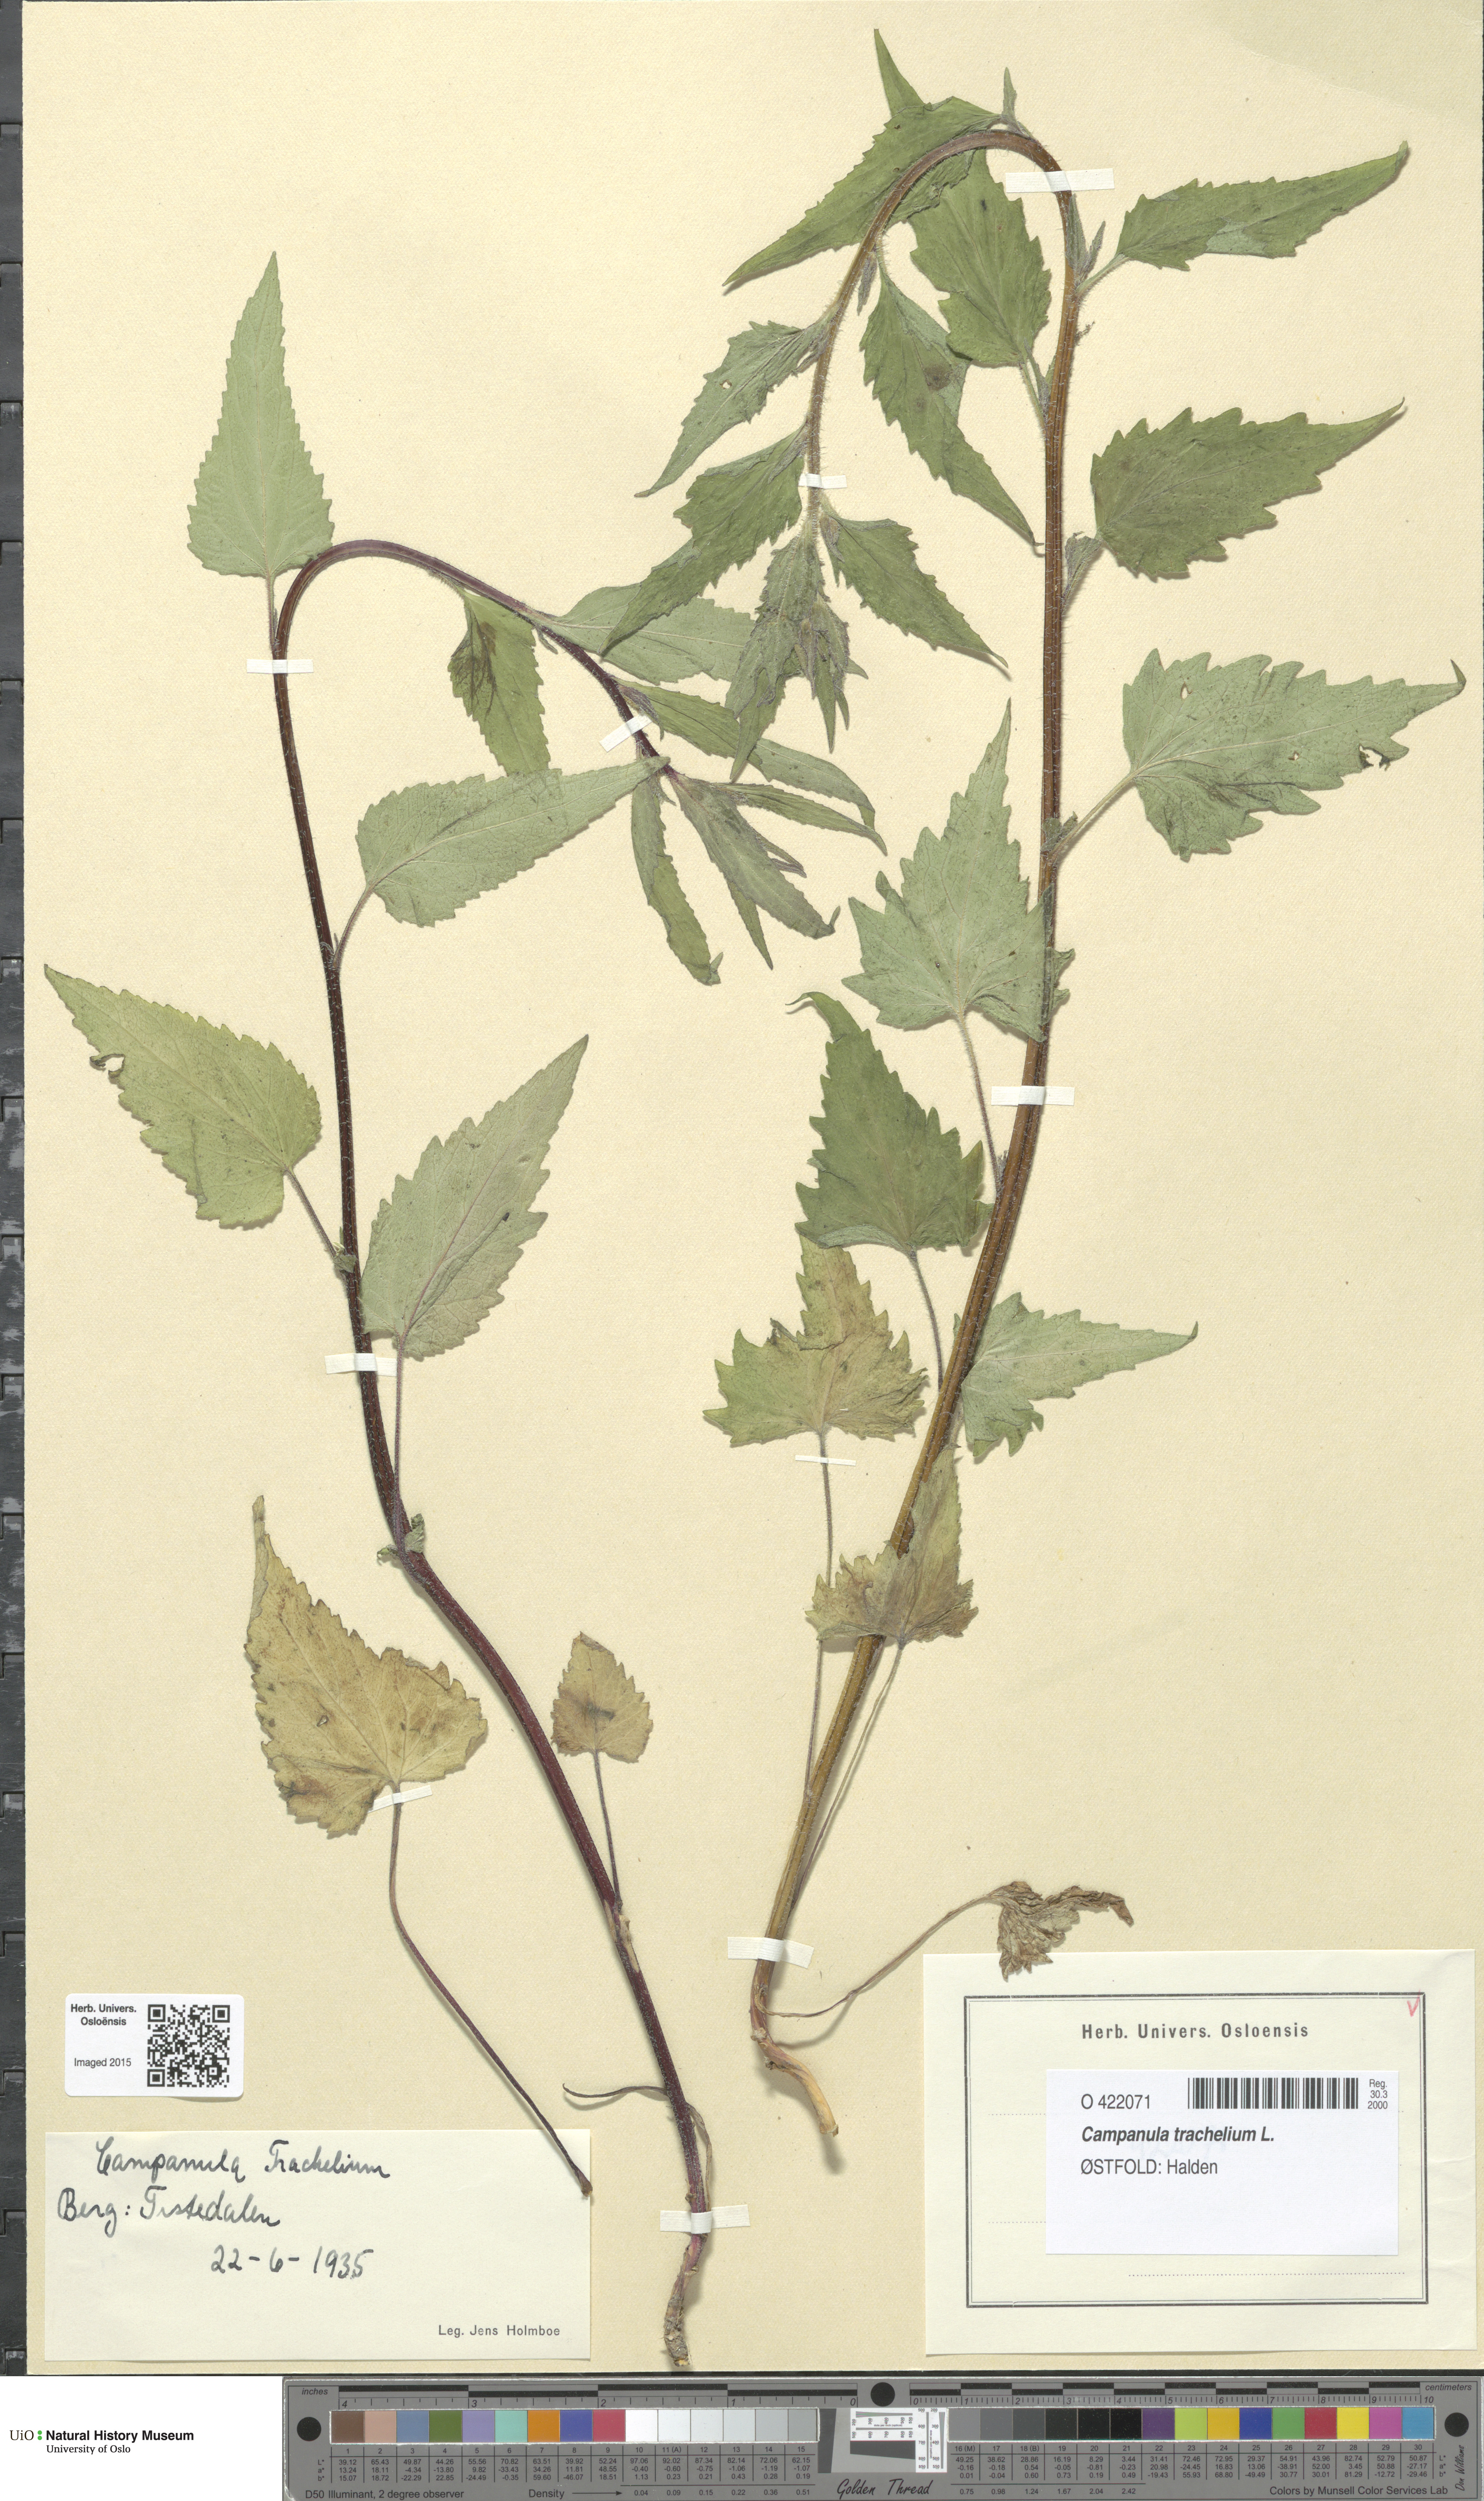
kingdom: Plantae
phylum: Tracheophyta
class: Magnoliopsida
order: Asterales
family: Campanulaceae
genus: Campanula
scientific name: Campanula trachelium
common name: Nettle-leaved bellflower
